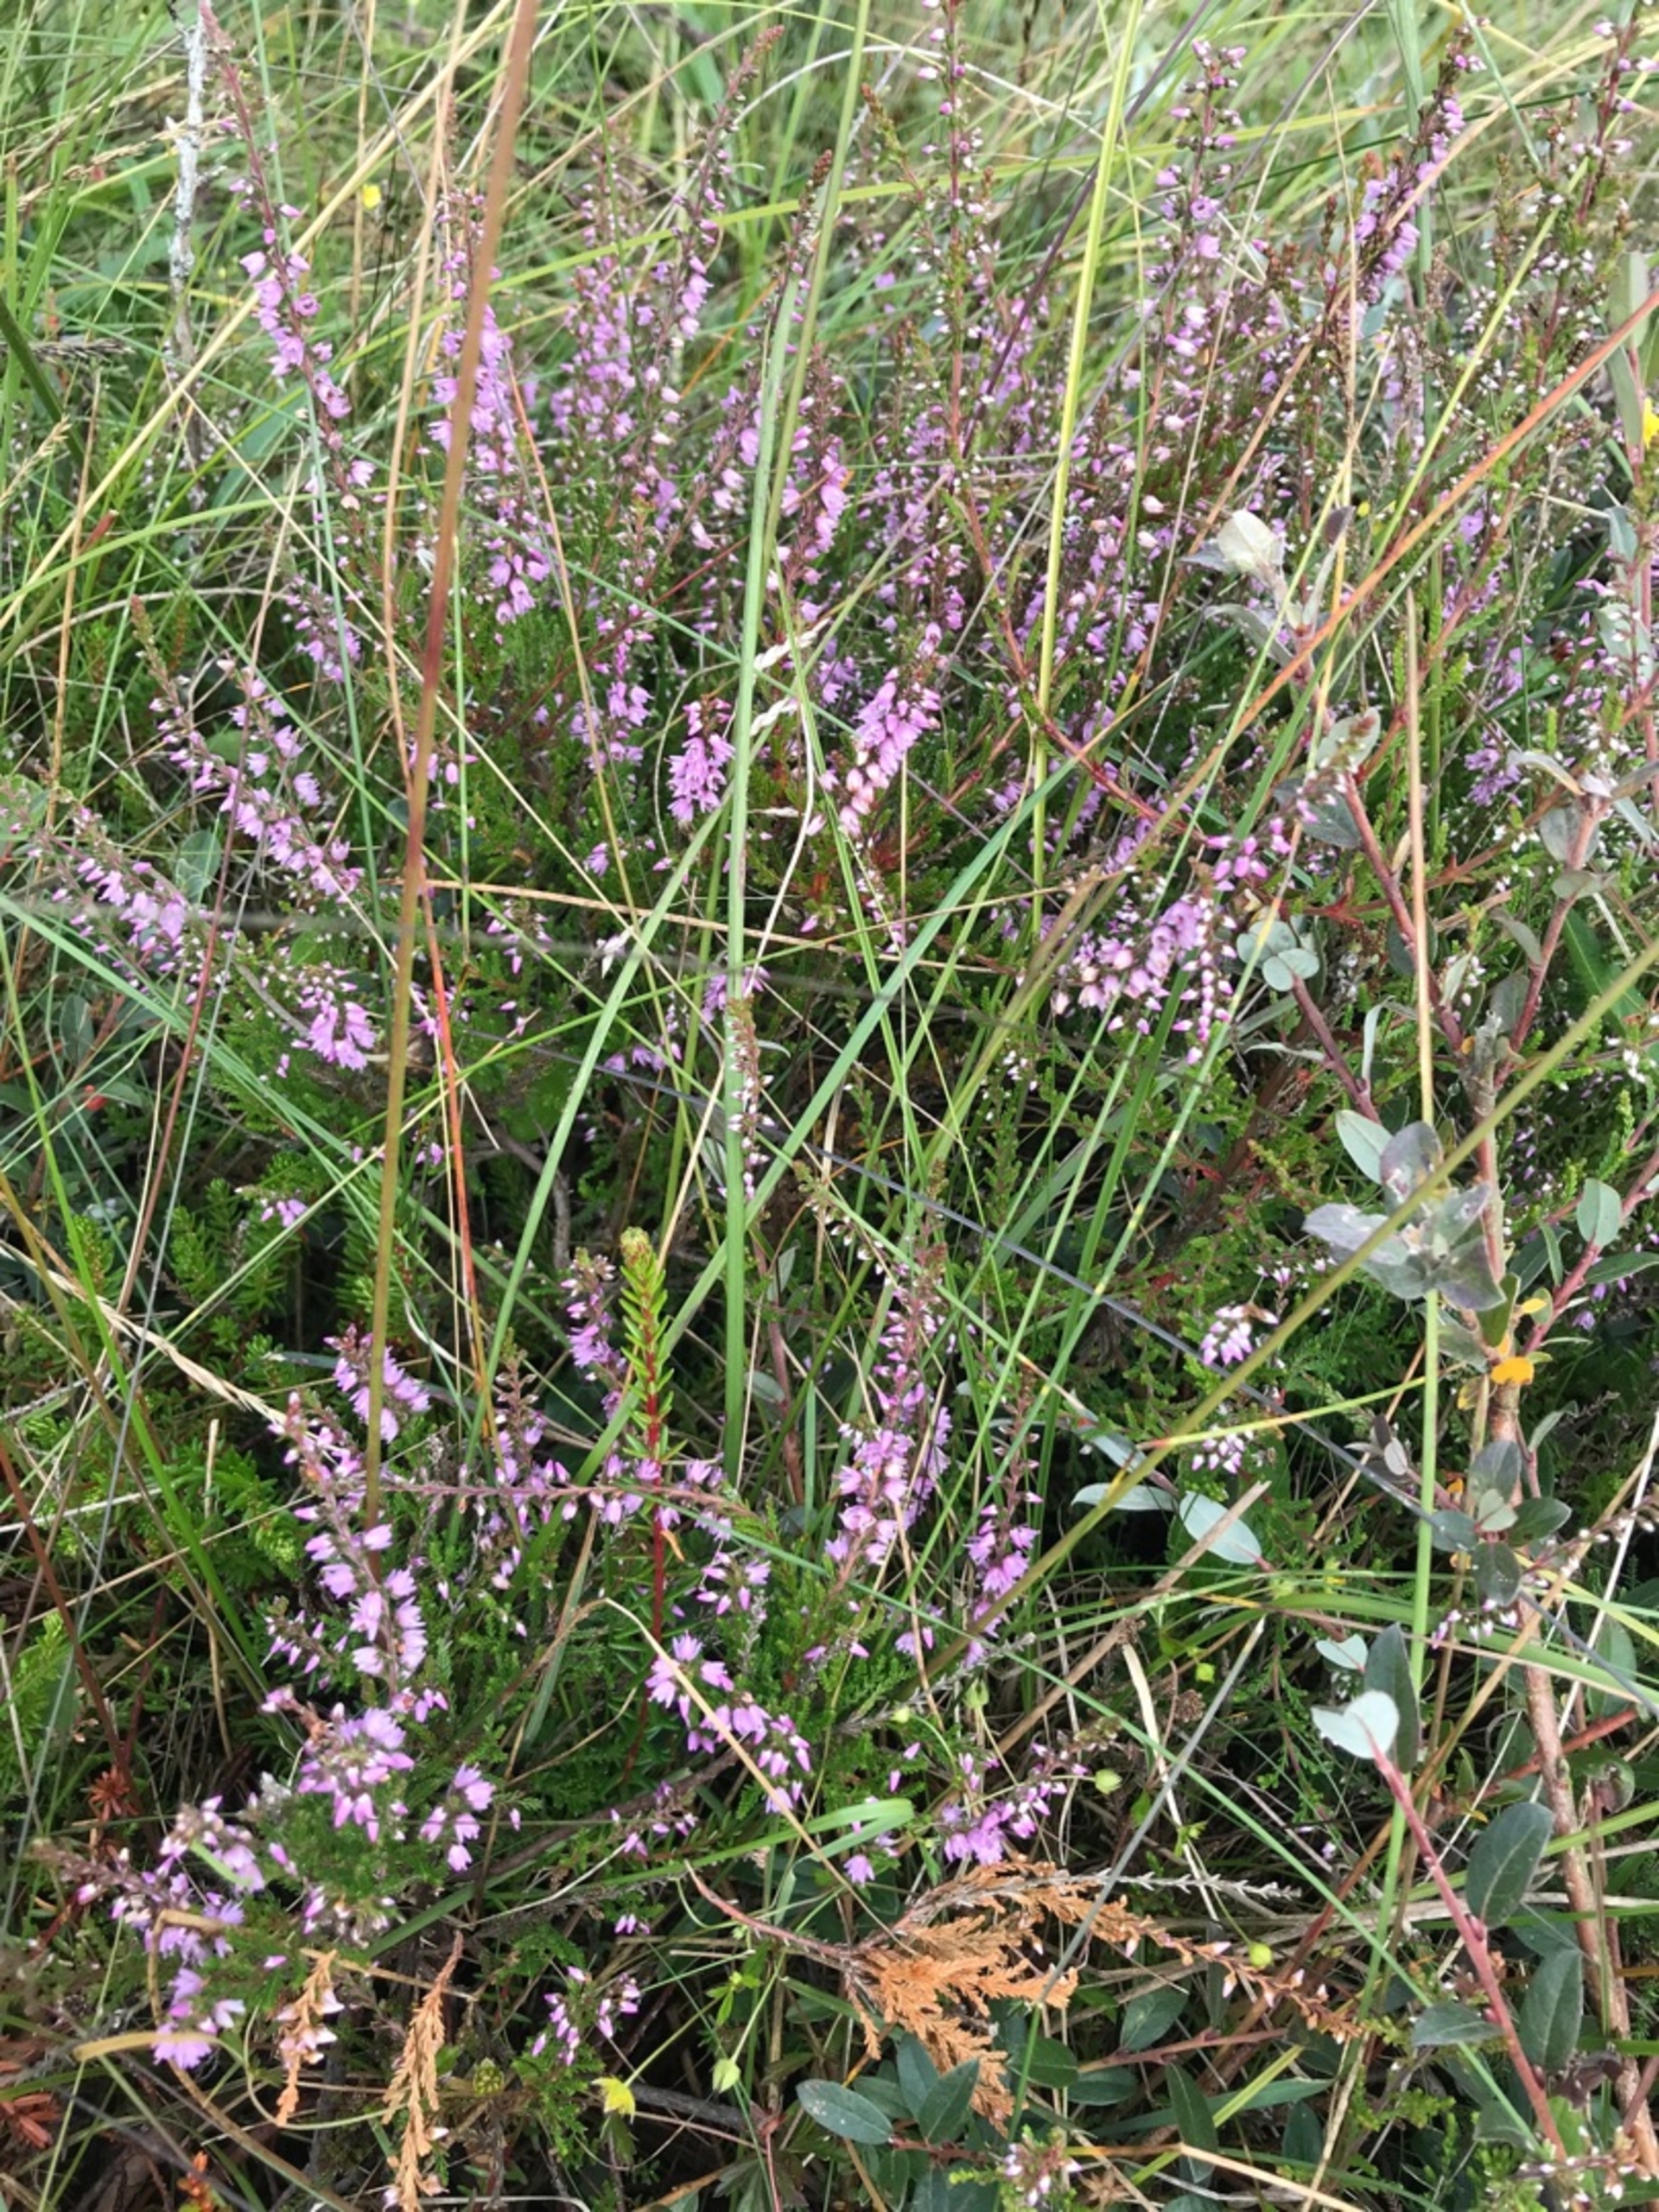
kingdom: Plantae
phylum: Tracheophyta
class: Magnoliopsida
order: Ericales
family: Ericaceae
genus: Calluna
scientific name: Calluna vulgaris
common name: Hedelyng
